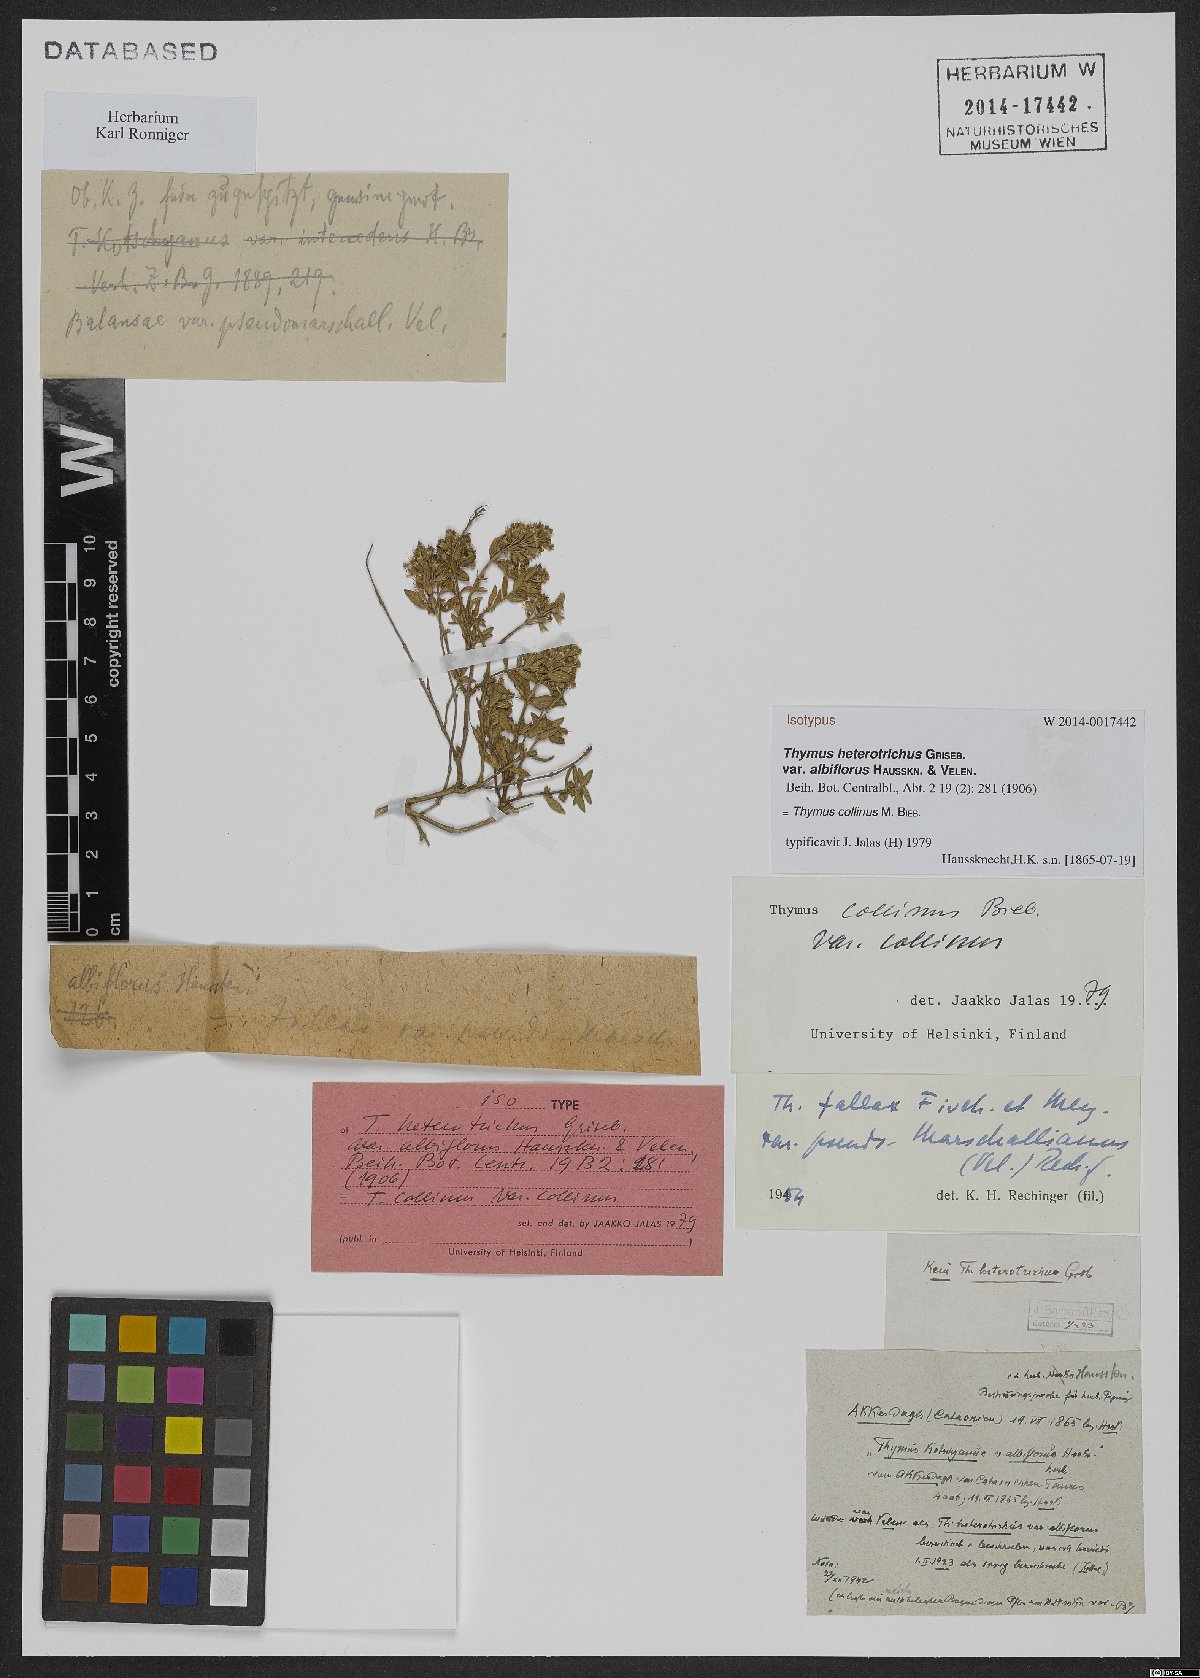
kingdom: Plantae
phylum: Tracheophyta
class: Magnoliopsida
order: Lamiales
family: Lamiaceae
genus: Thymus
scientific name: Thymus collinus
